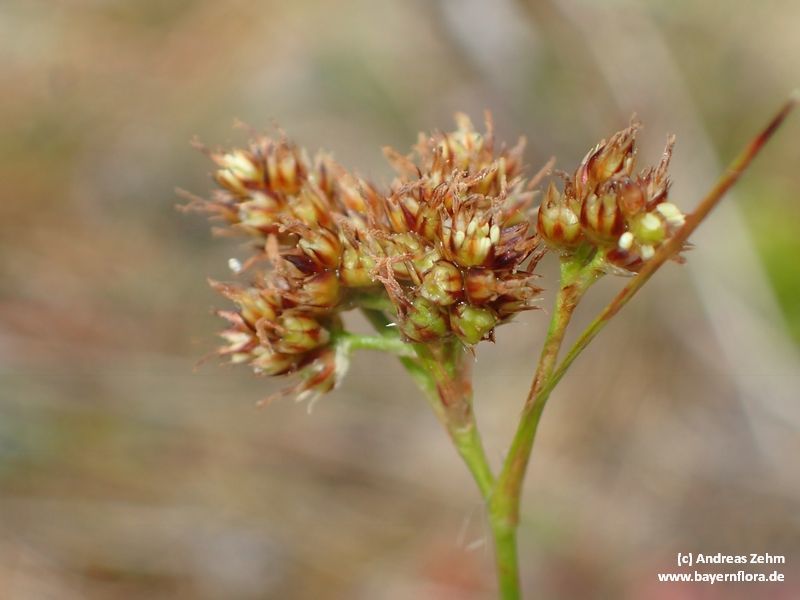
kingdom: Plantae
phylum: Tracheophyta
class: Liliopsida
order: Poales
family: Juncaceae
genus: Luzula
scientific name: Luzula multiflora
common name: Heath wood-rush
